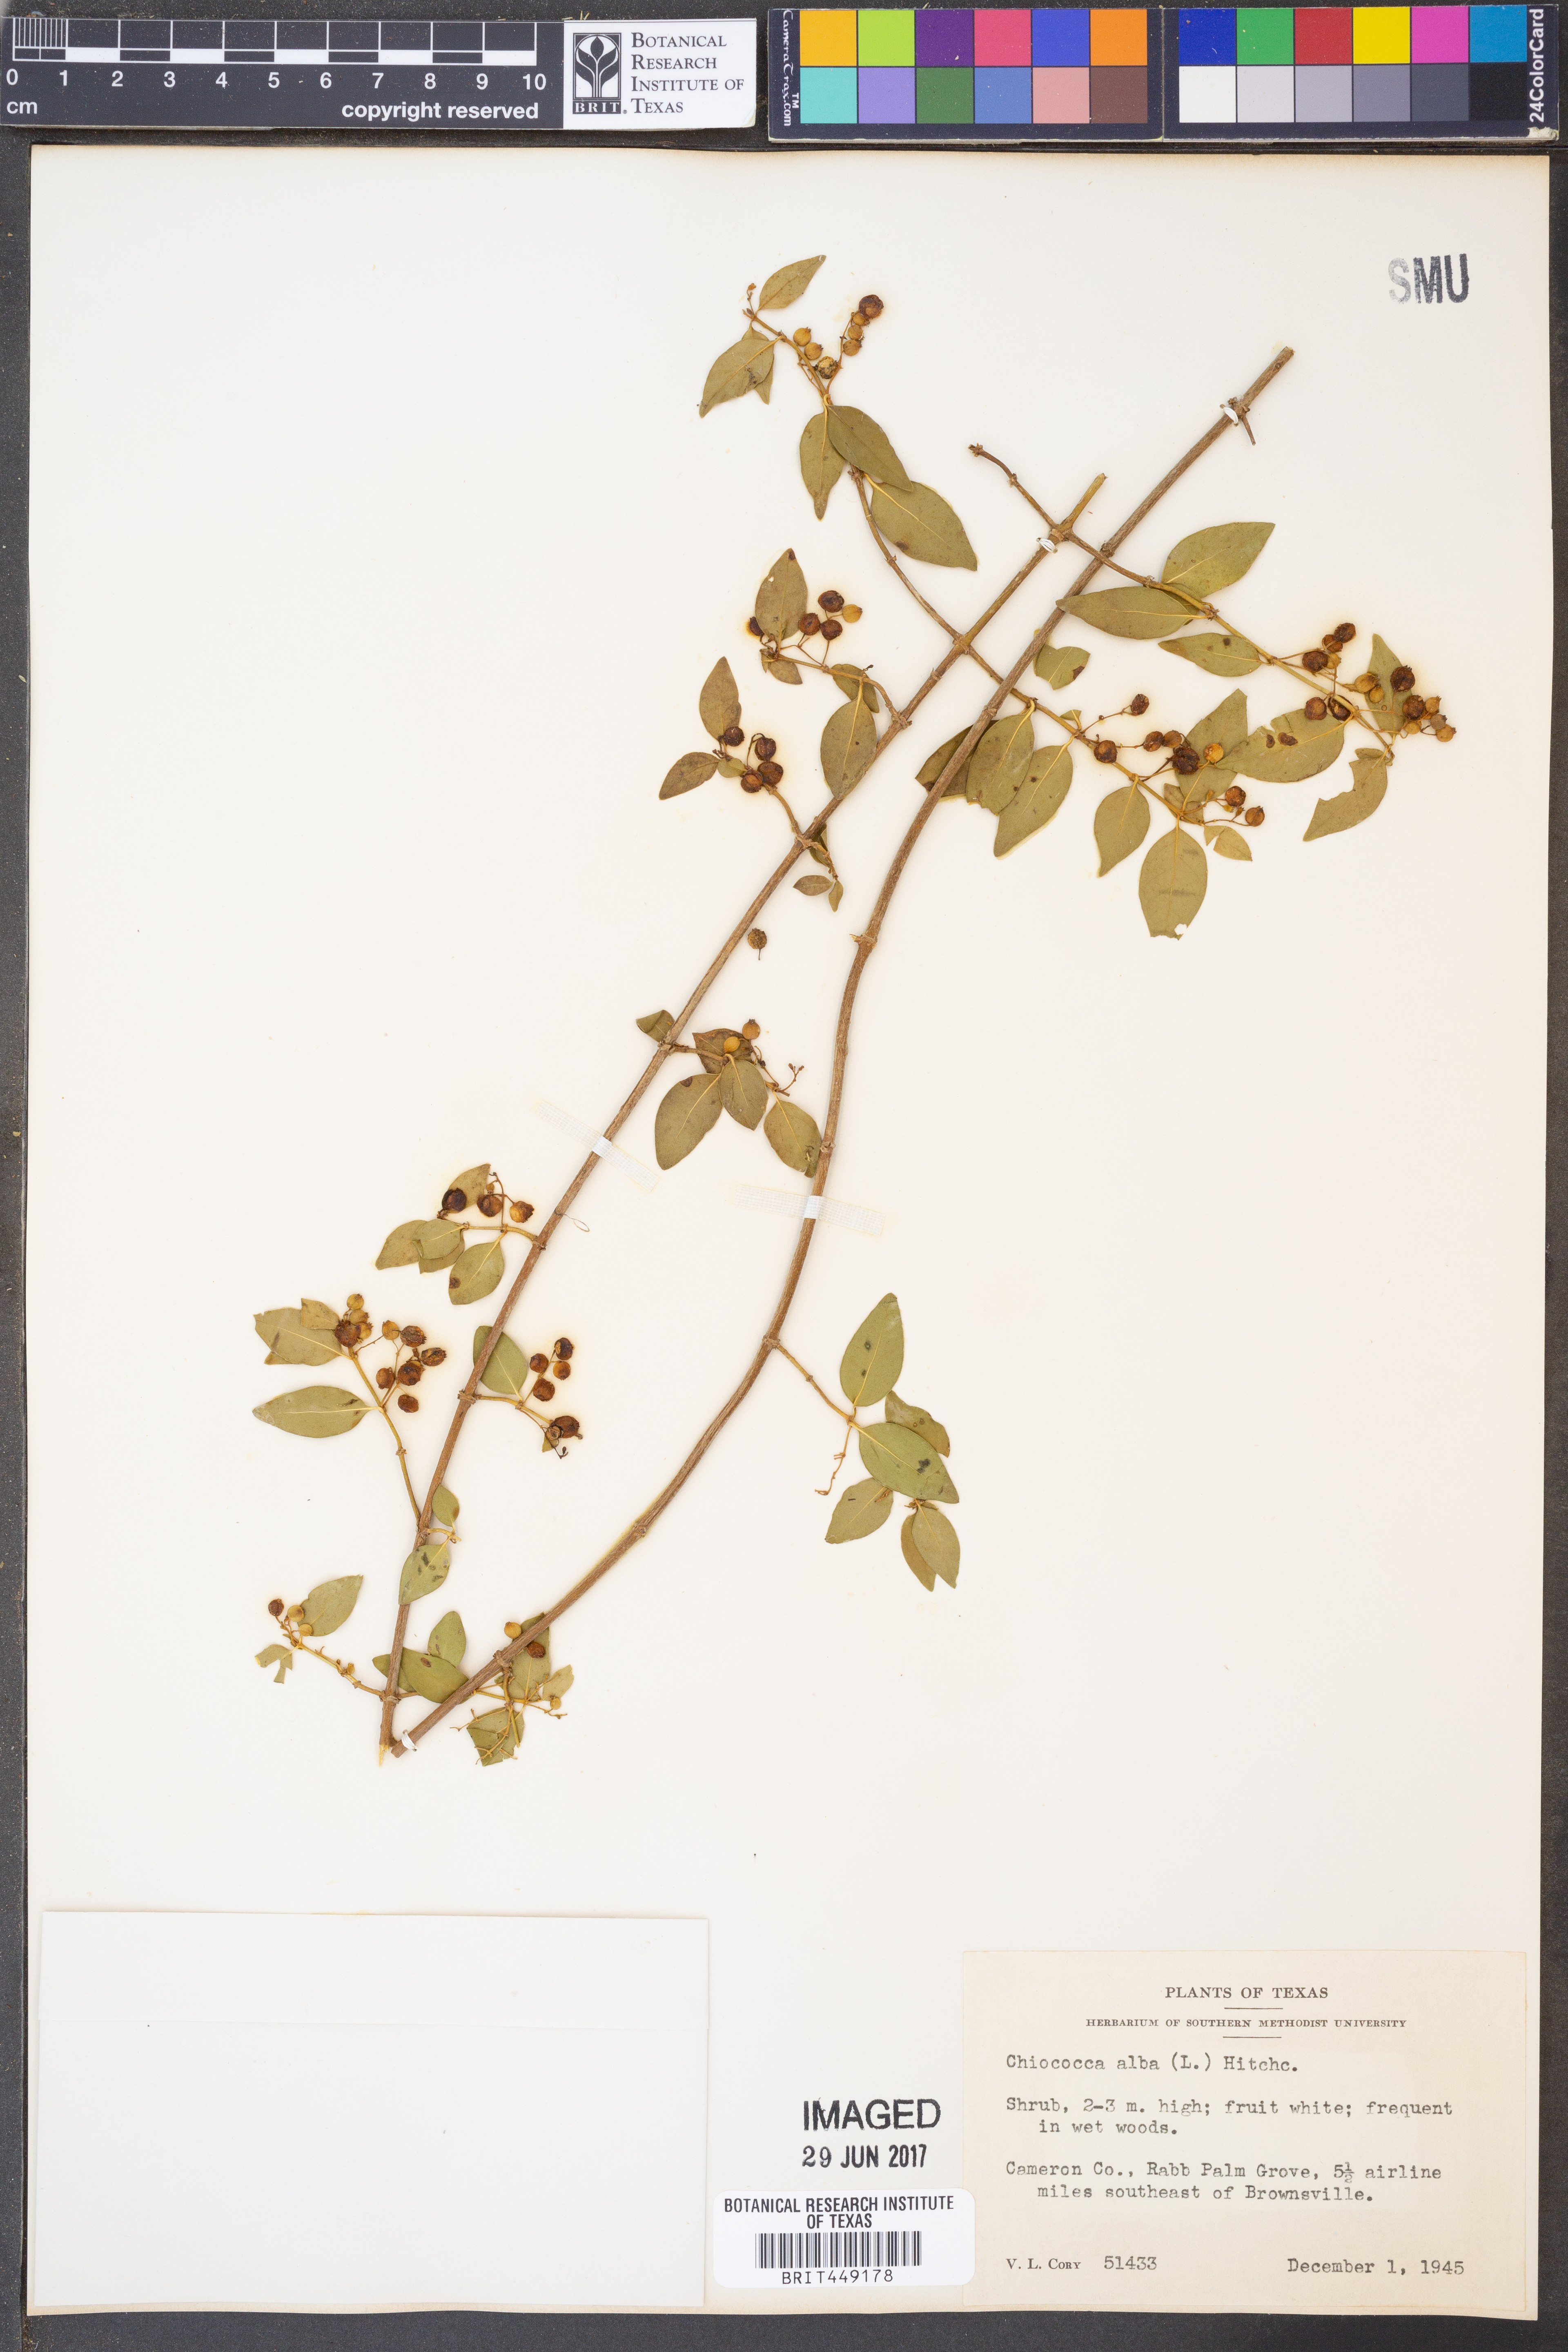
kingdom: Plantae
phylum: Tracheophyta
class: Magnoliopsida
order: Gentianales
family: Rubiaceae
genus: Chiococca
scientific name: Chiococca alba
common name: Snowberry
